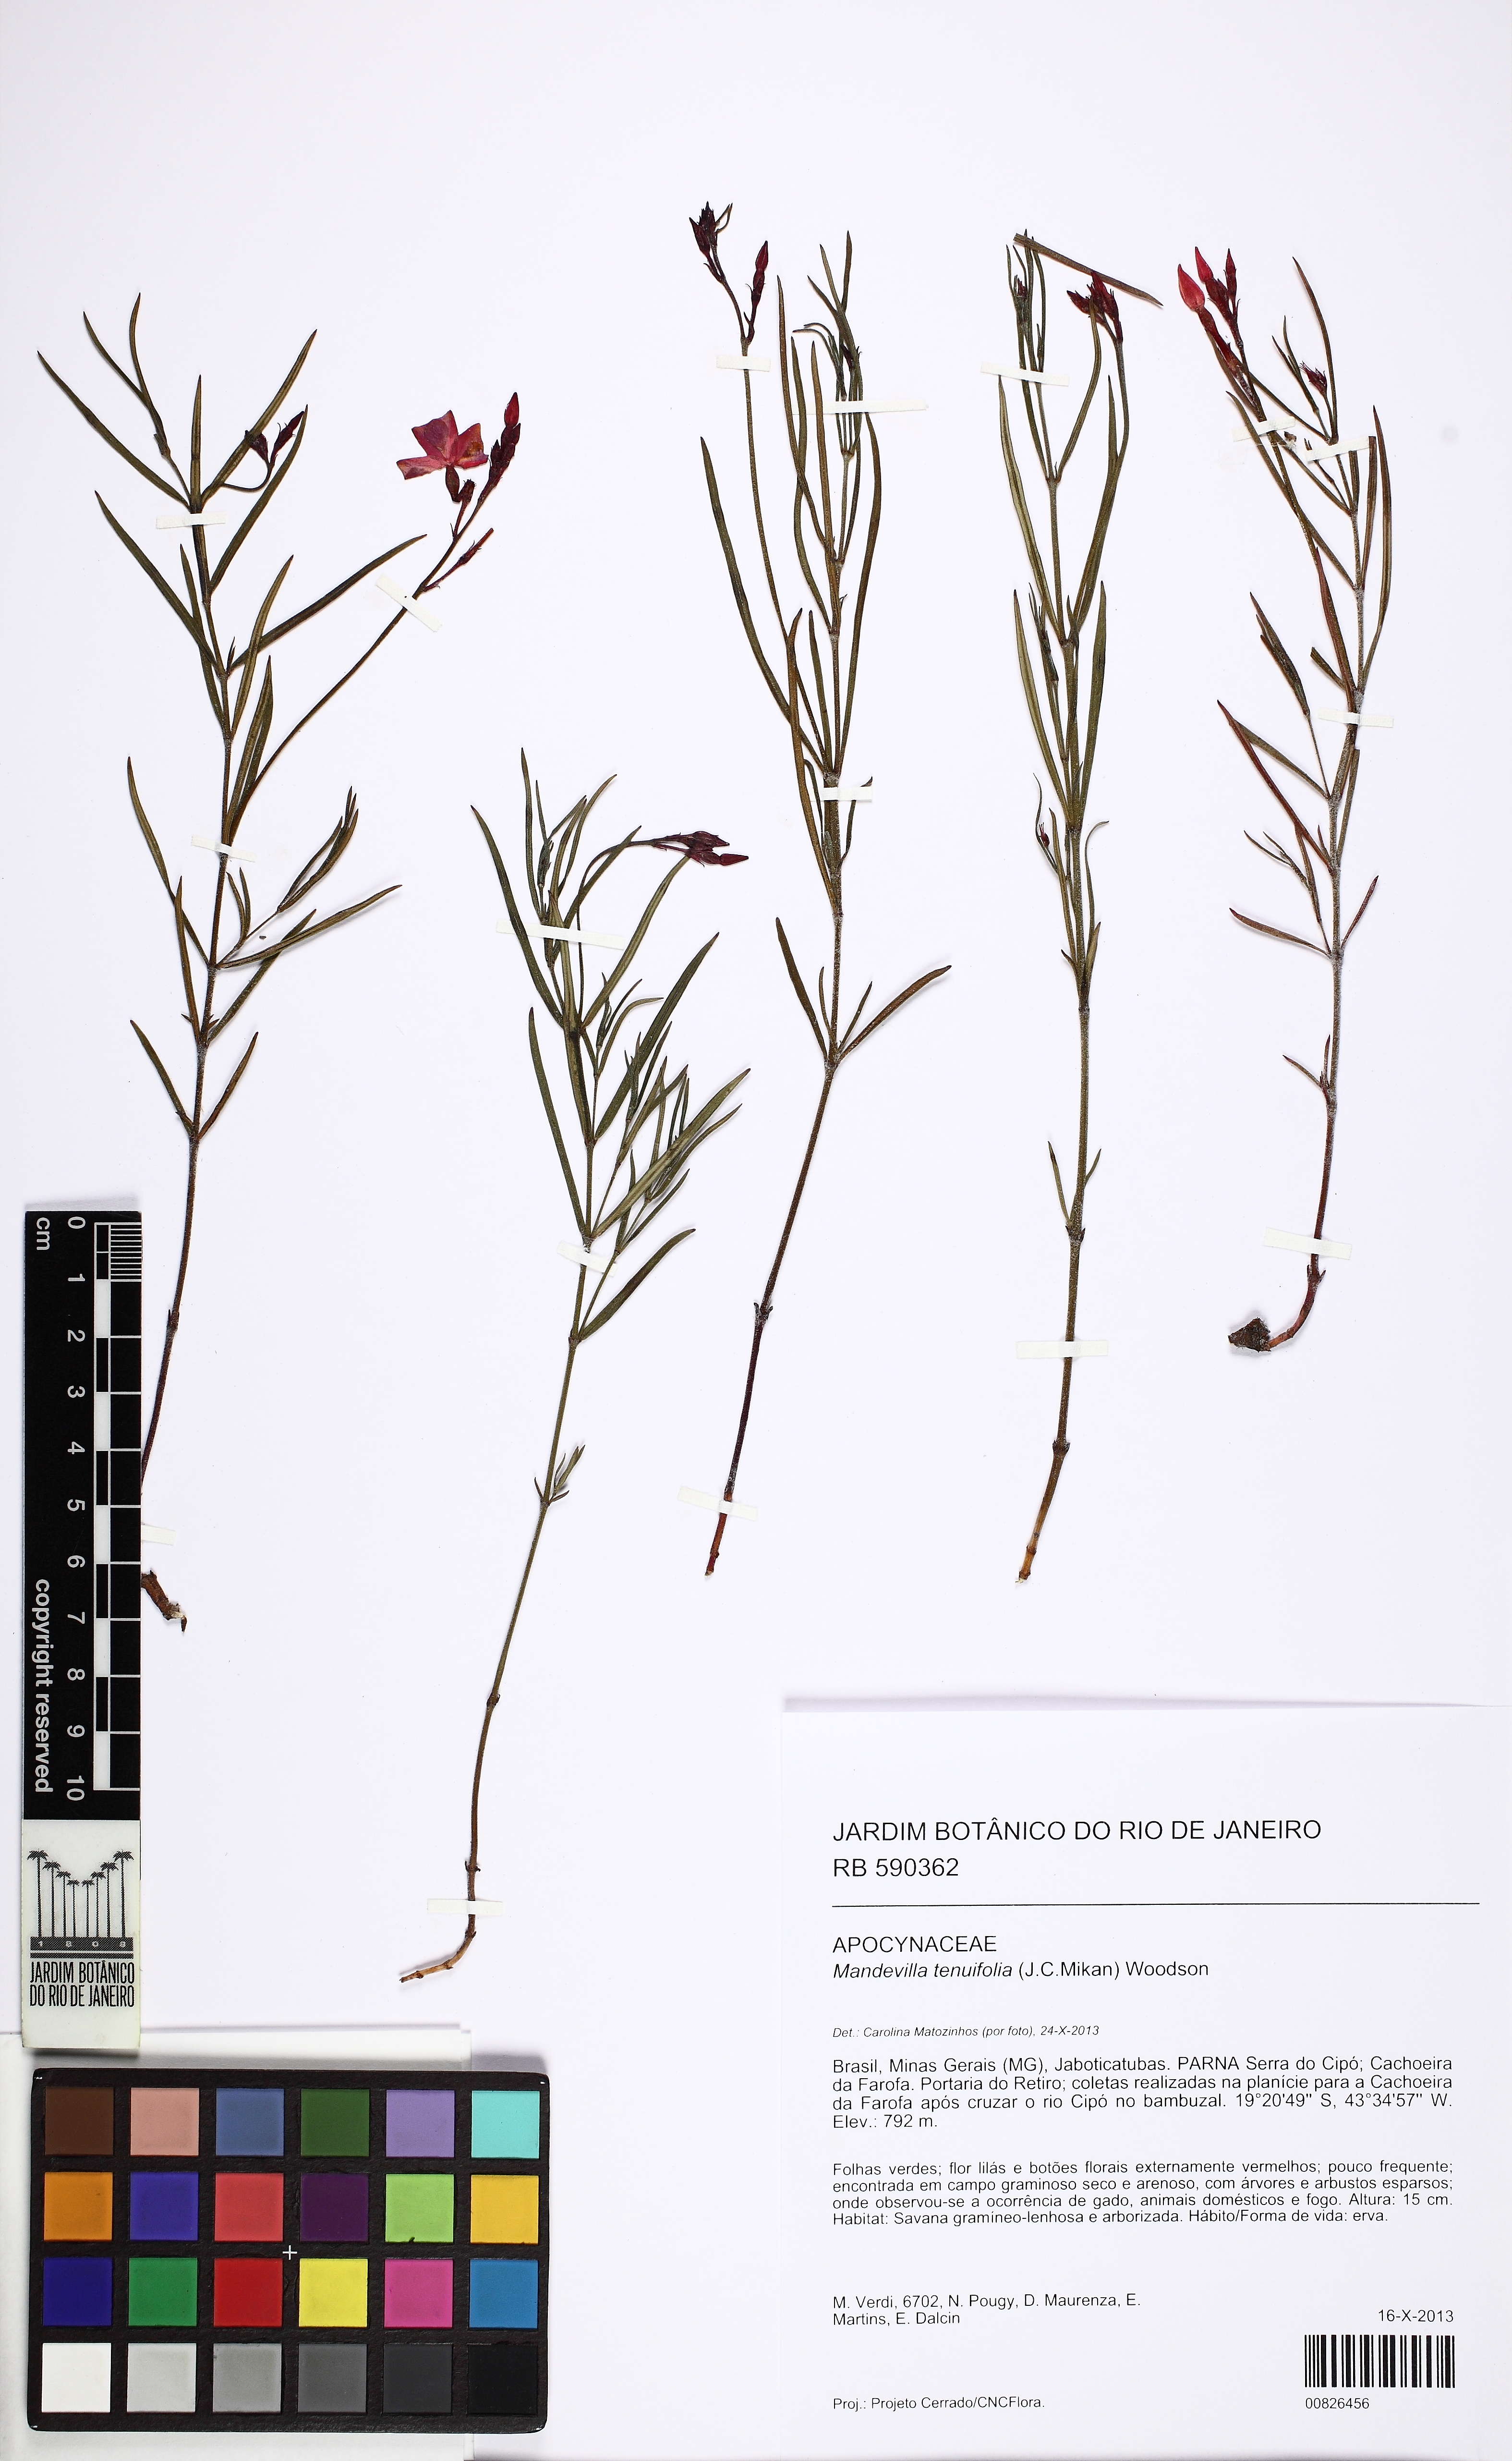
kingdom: Plantae
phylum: Tracheophyta
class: Magnoliopsida
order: Gentianales
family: Apocynaceae
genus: Mandevilla
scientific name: Mandevilla tenuifolia
